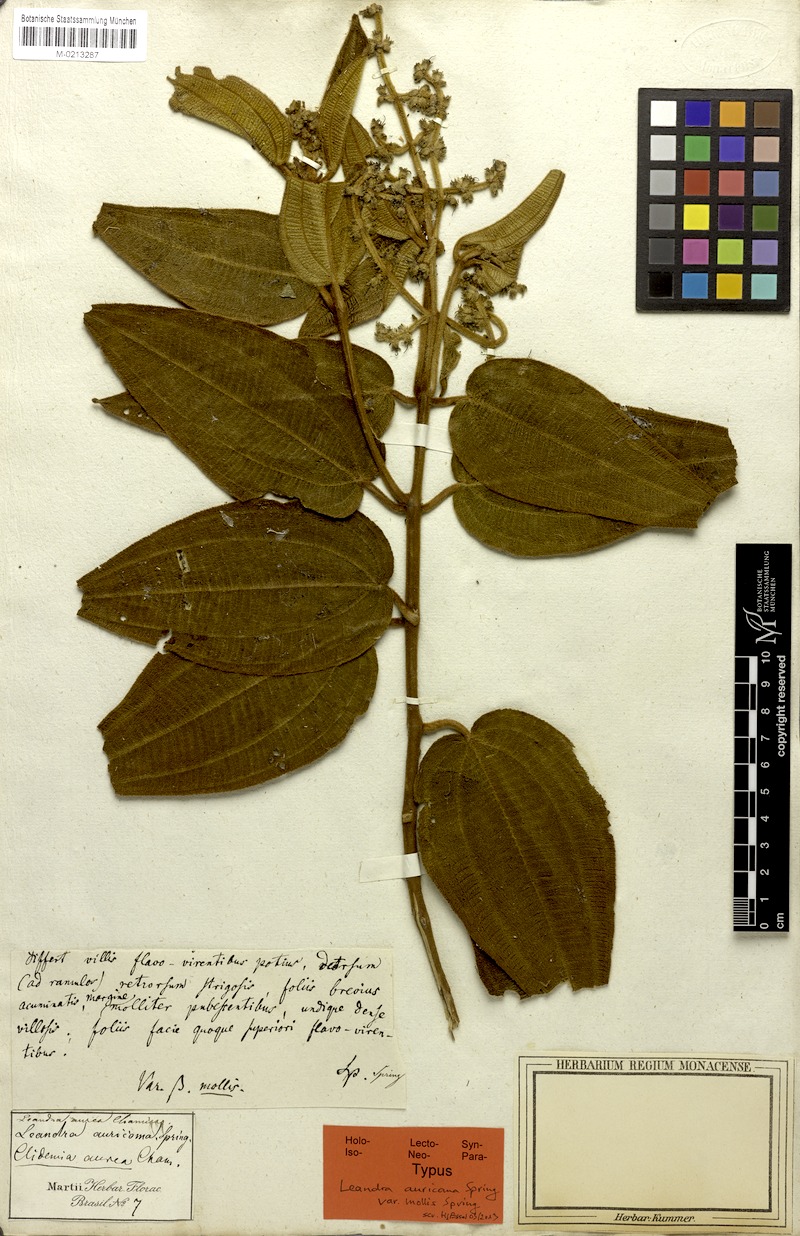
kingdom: Plantae
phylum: Tracheophyta
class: Magnoliopsida
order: Myrtales
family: Melastomataceae
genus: Miconia
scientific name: Miconia auricoma
